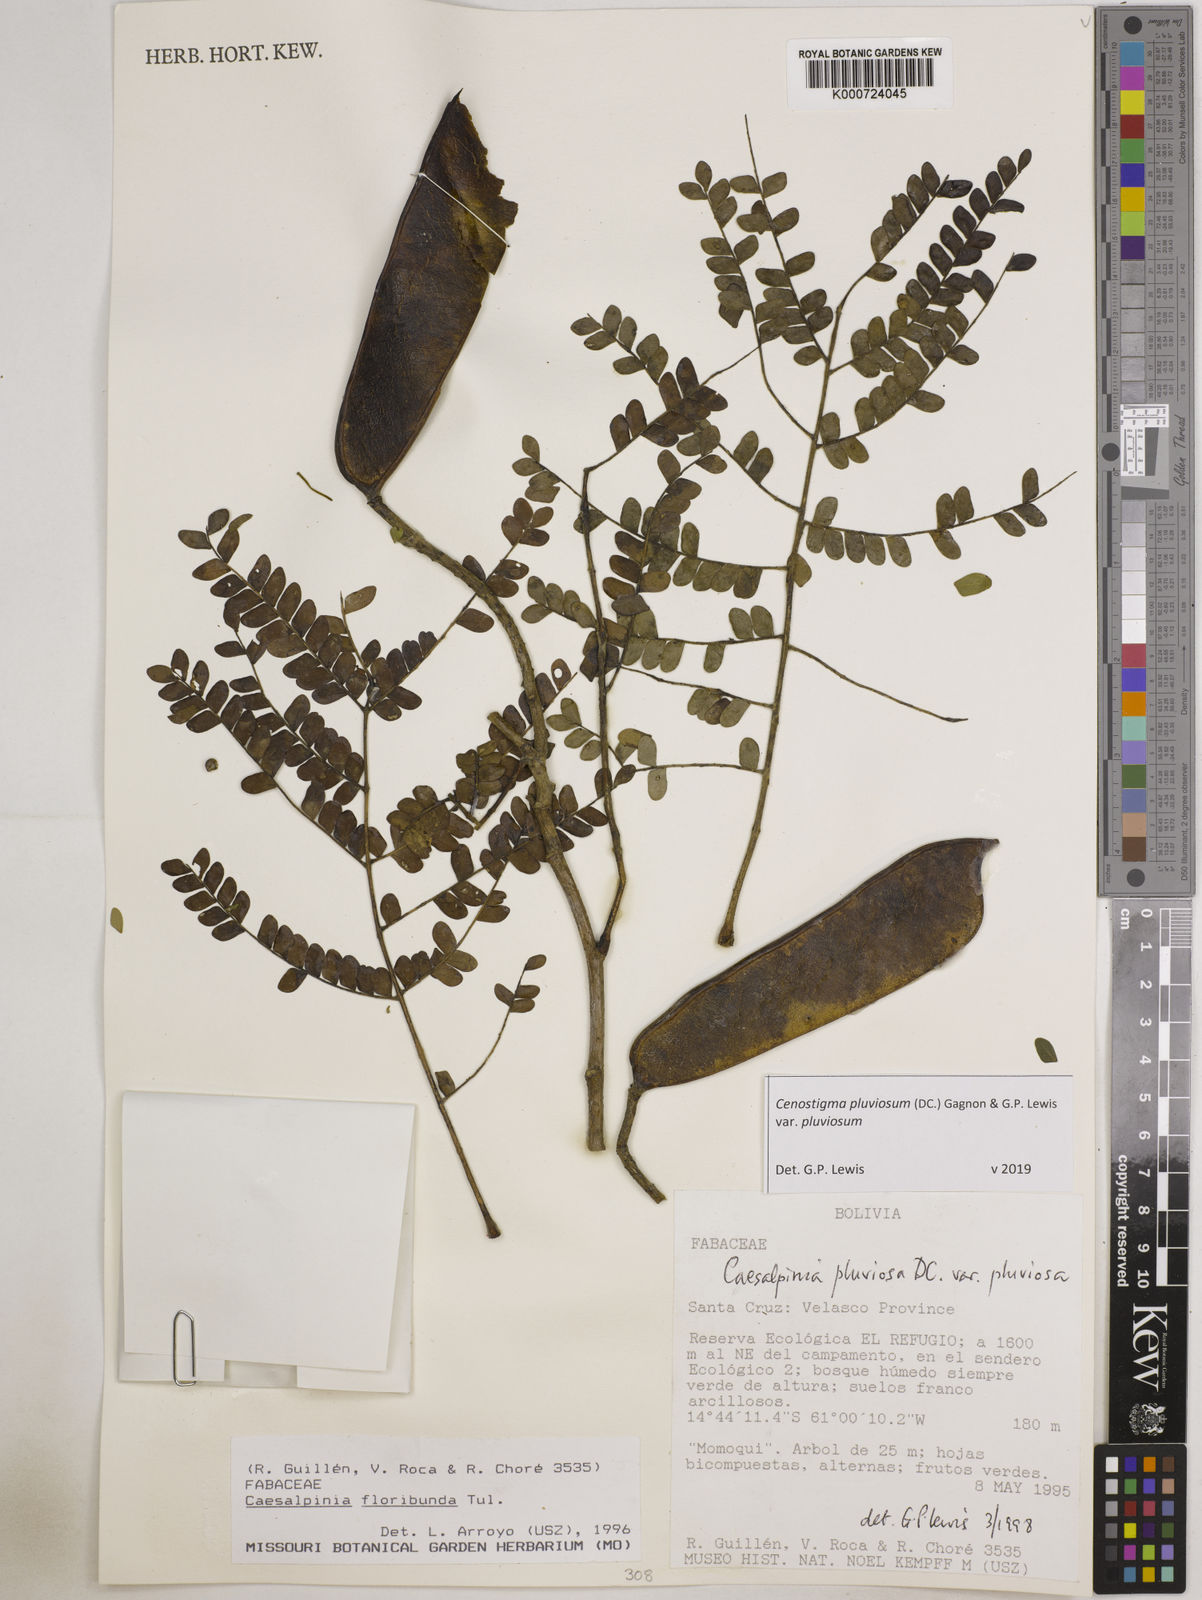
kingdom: Plantae
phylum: Tracheophyta
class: Magnoliopsida
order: Fabales
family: Fabaceae
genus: Cenostigma
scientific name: Cenostigma pluviosum
